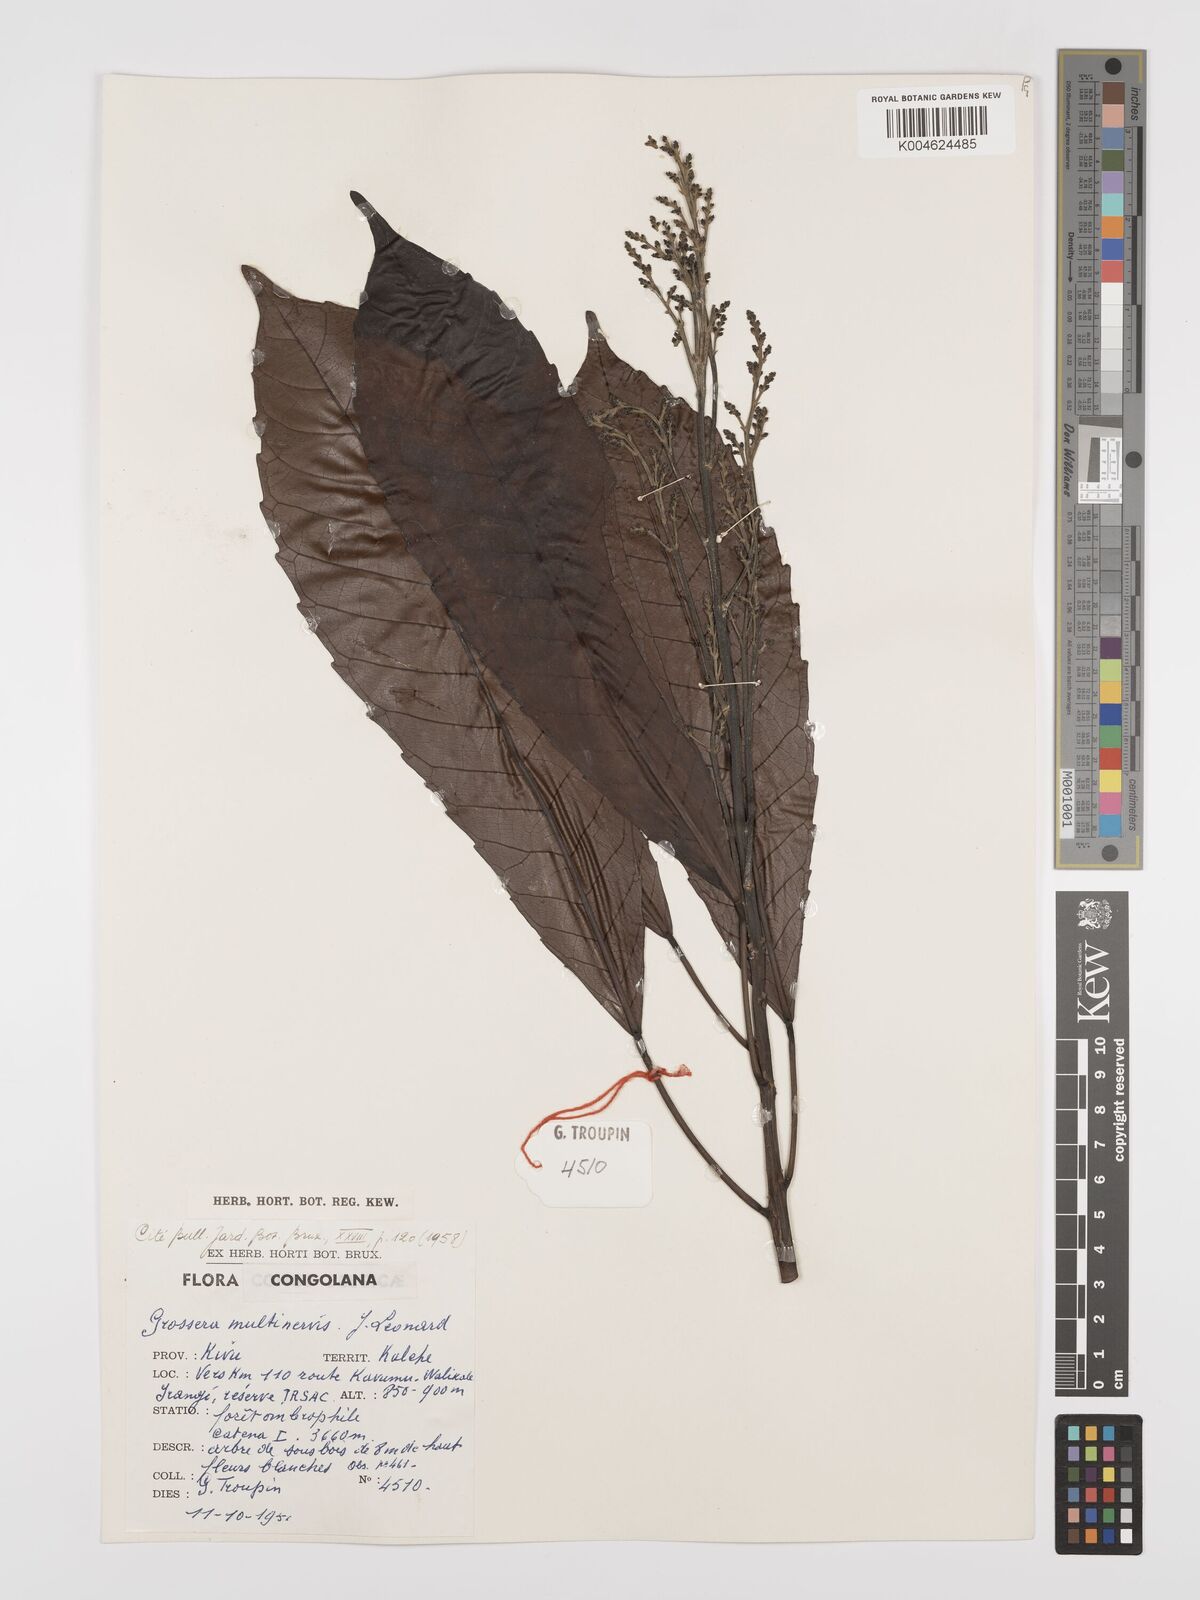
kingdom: Plantae
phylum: Tracheophyta
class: Magnoliopsida
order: Malpighiales
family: Euphorbiaceae
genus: Grossera
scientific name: Grossera multinervis
